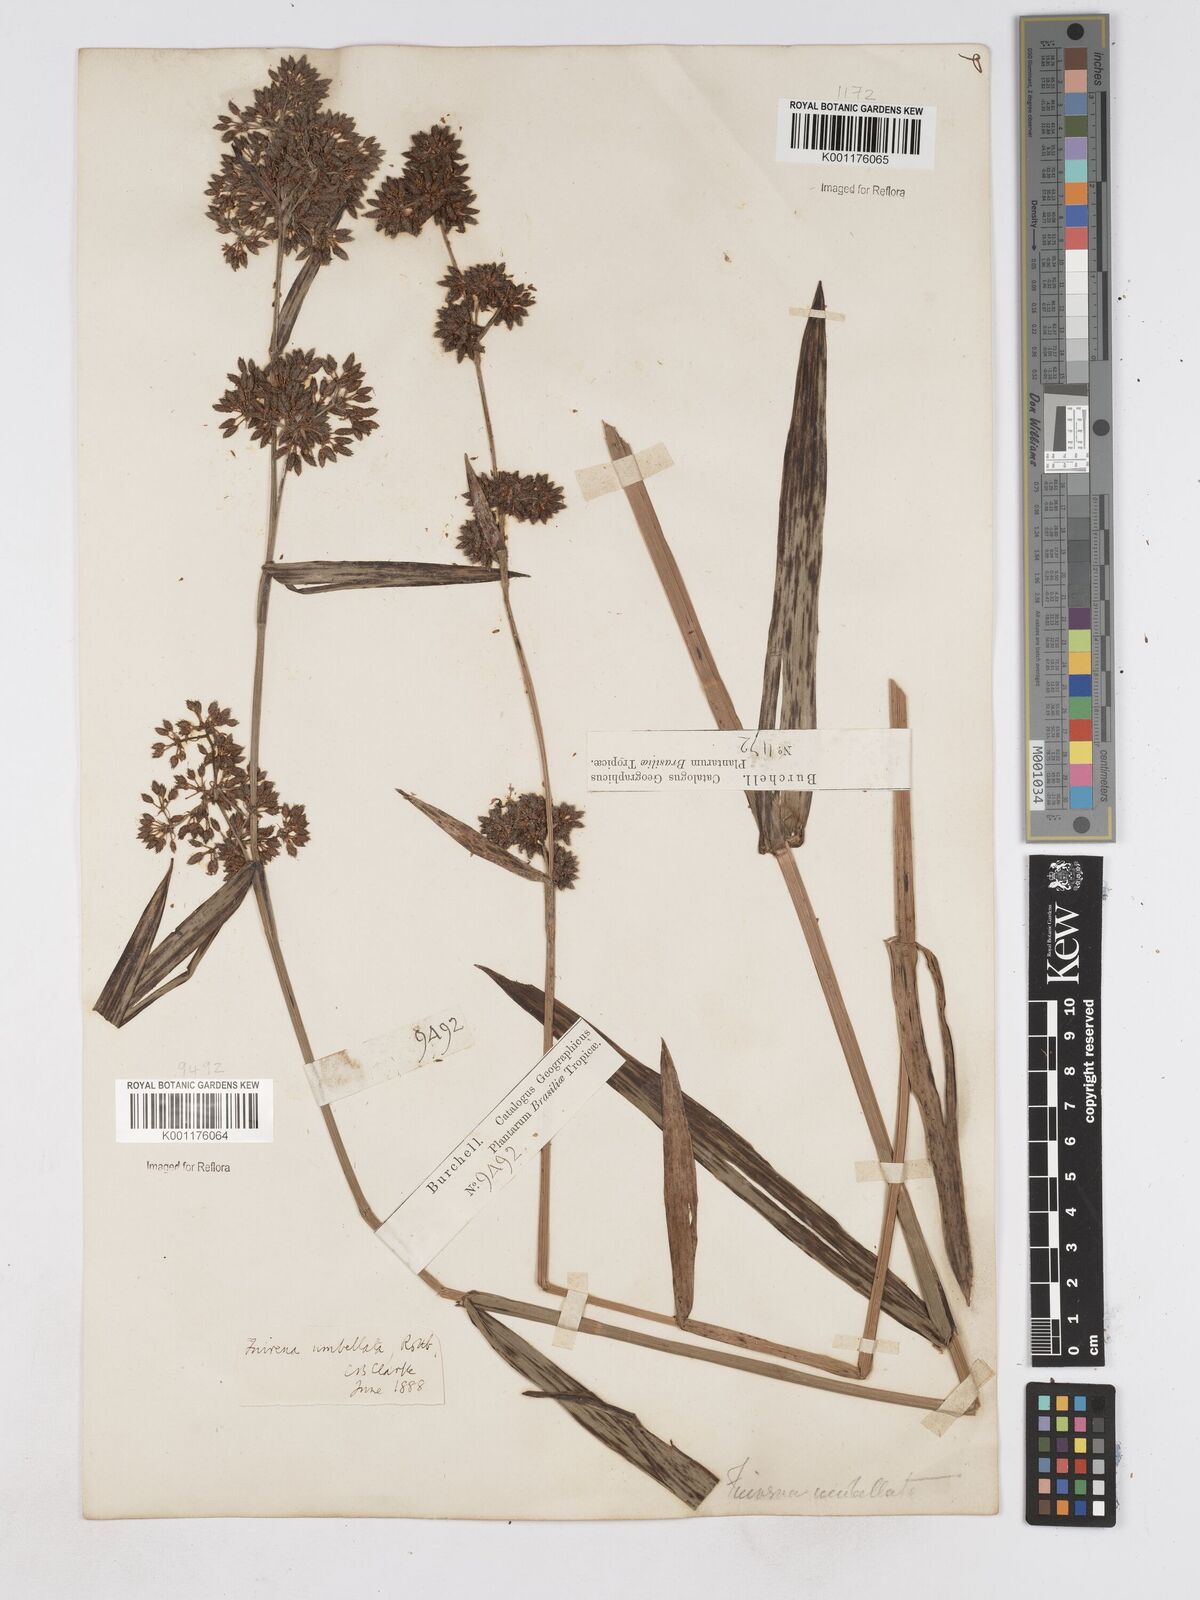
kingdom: Plantae
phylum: Tracheophyta
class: Liliopsida
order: Poales
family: Cyperaceae
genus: Fuirena
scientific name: Fuirena umbellata
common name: Yefen
